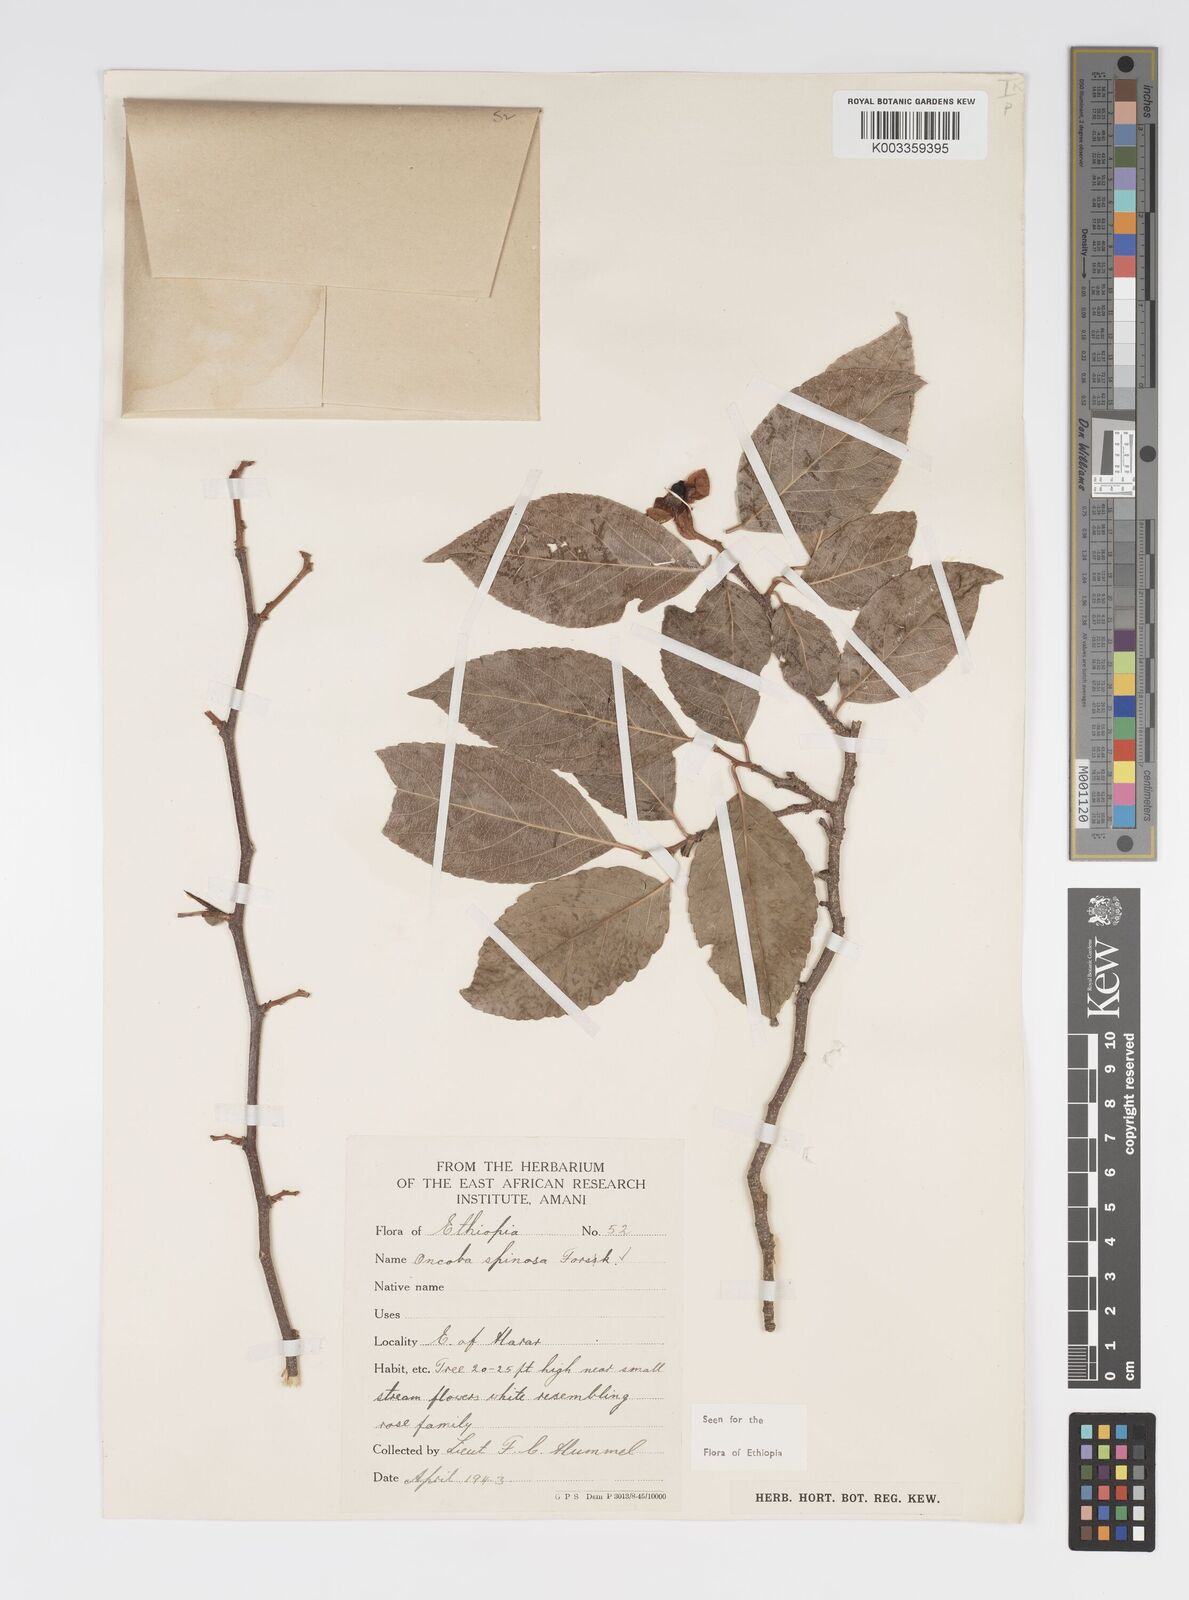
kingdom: Plantae
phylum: Tracheophyta
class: Magnoliopsida
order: Malpighiales
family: Salicaceae
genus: Oncoba
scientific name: Oncoba spinosa
